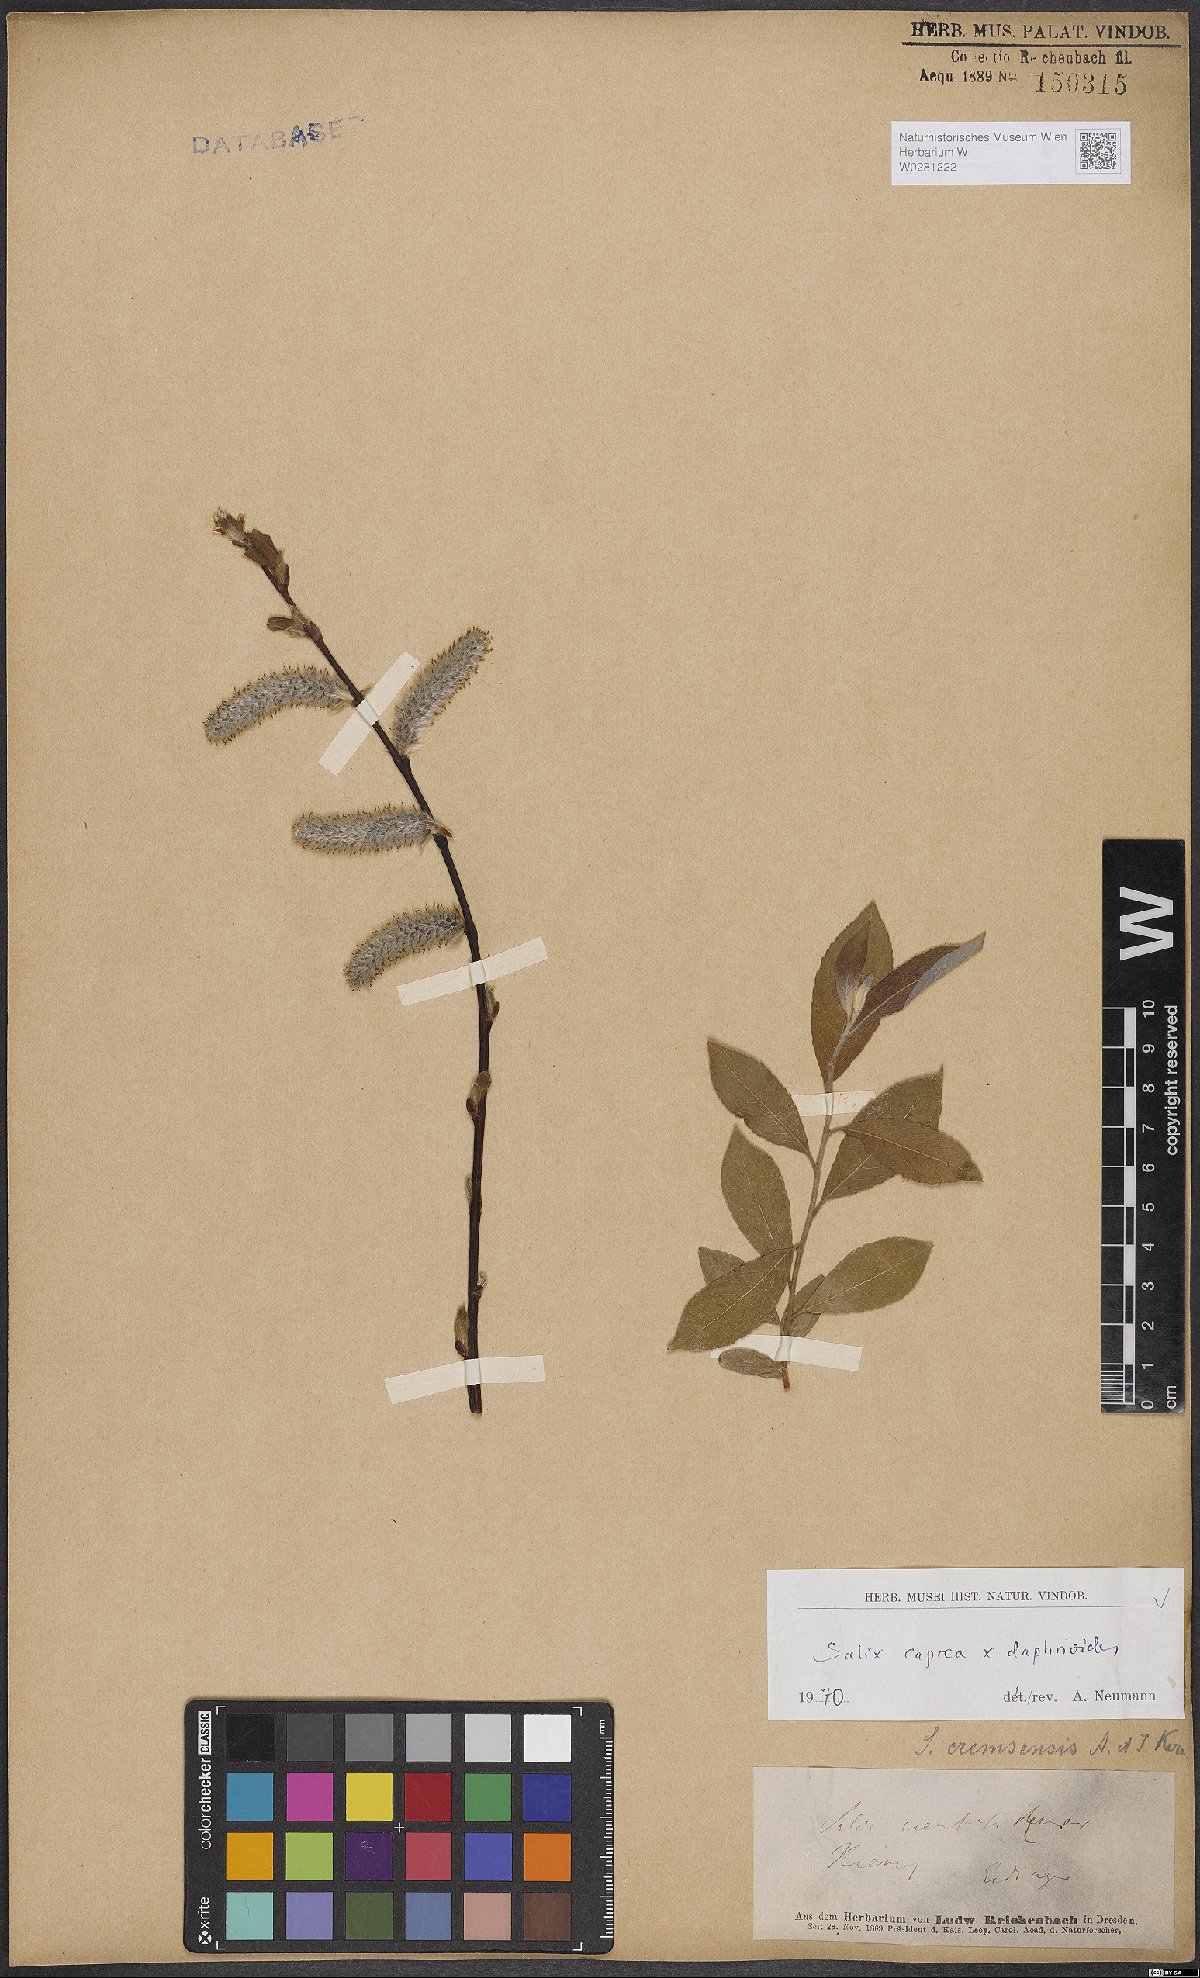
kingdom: Plantae
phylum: Tracheophyta
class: Magnoliopsida
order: Malpighiales
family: Salicaceae
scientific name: Salicaceae
